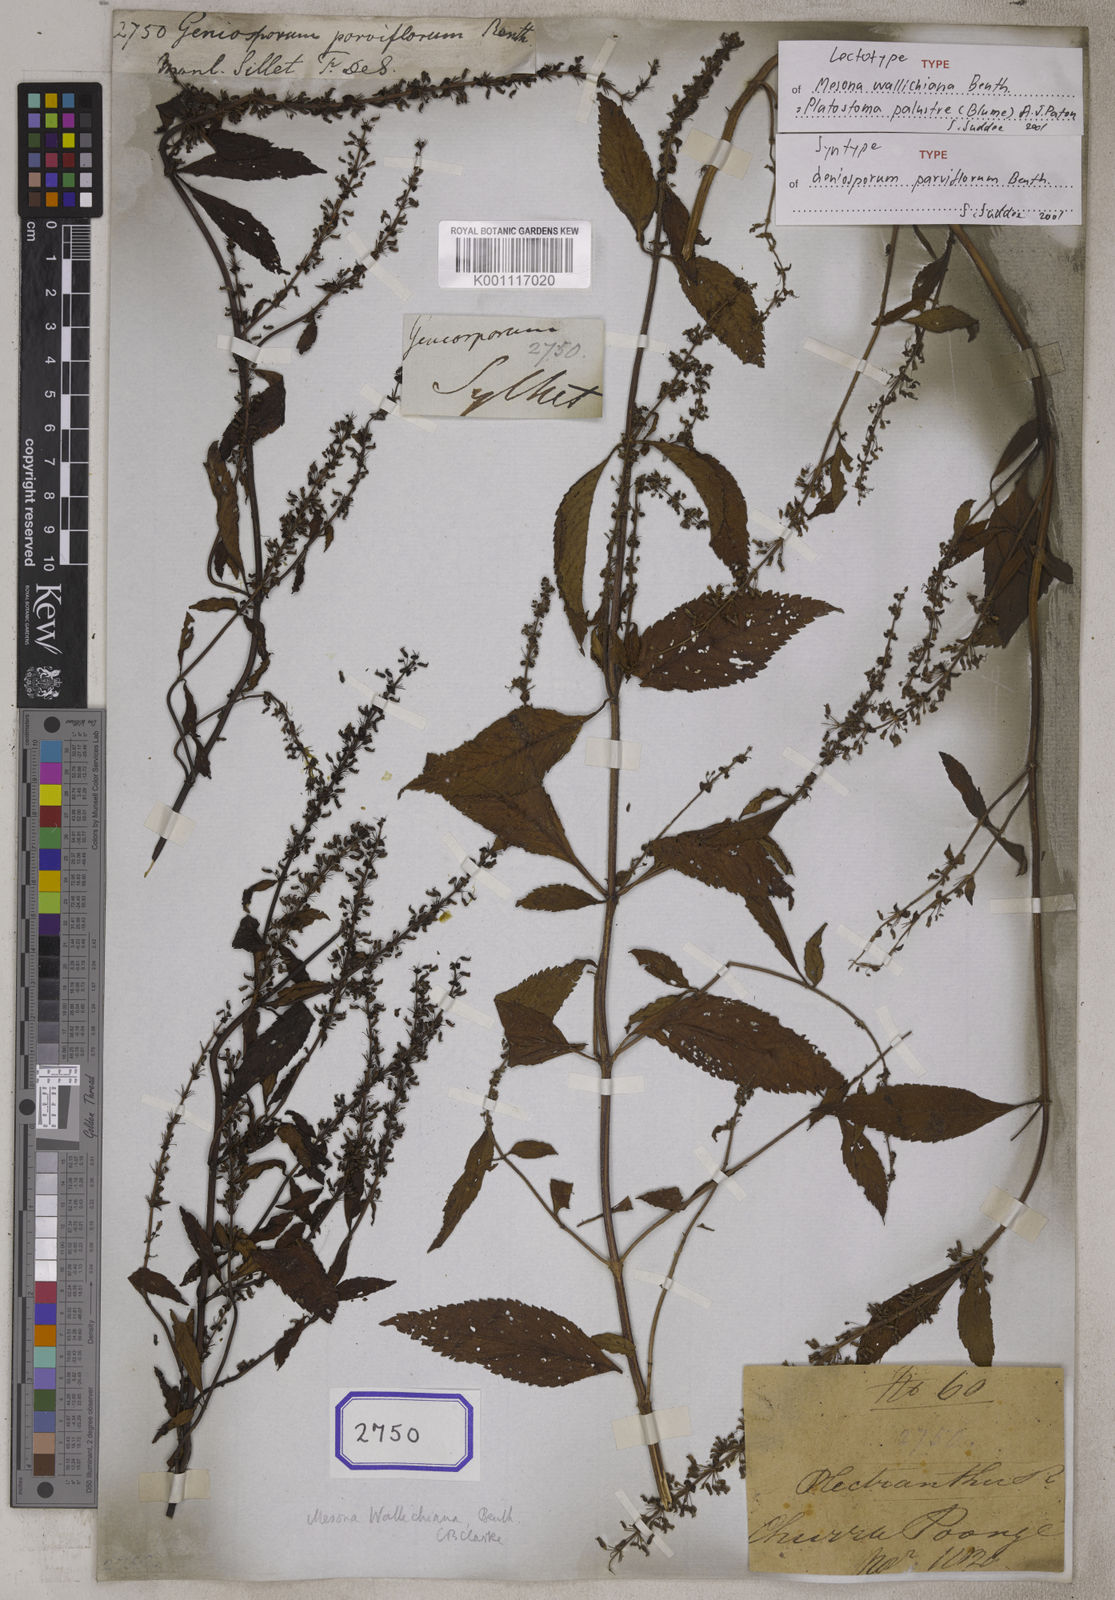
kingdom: Plantae
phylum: Tracheophyta
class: Magnoliopsida
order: Lamiales
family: Lamiaceae
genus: Platostoma
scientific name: Platostoma palustre
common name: Black cincau
